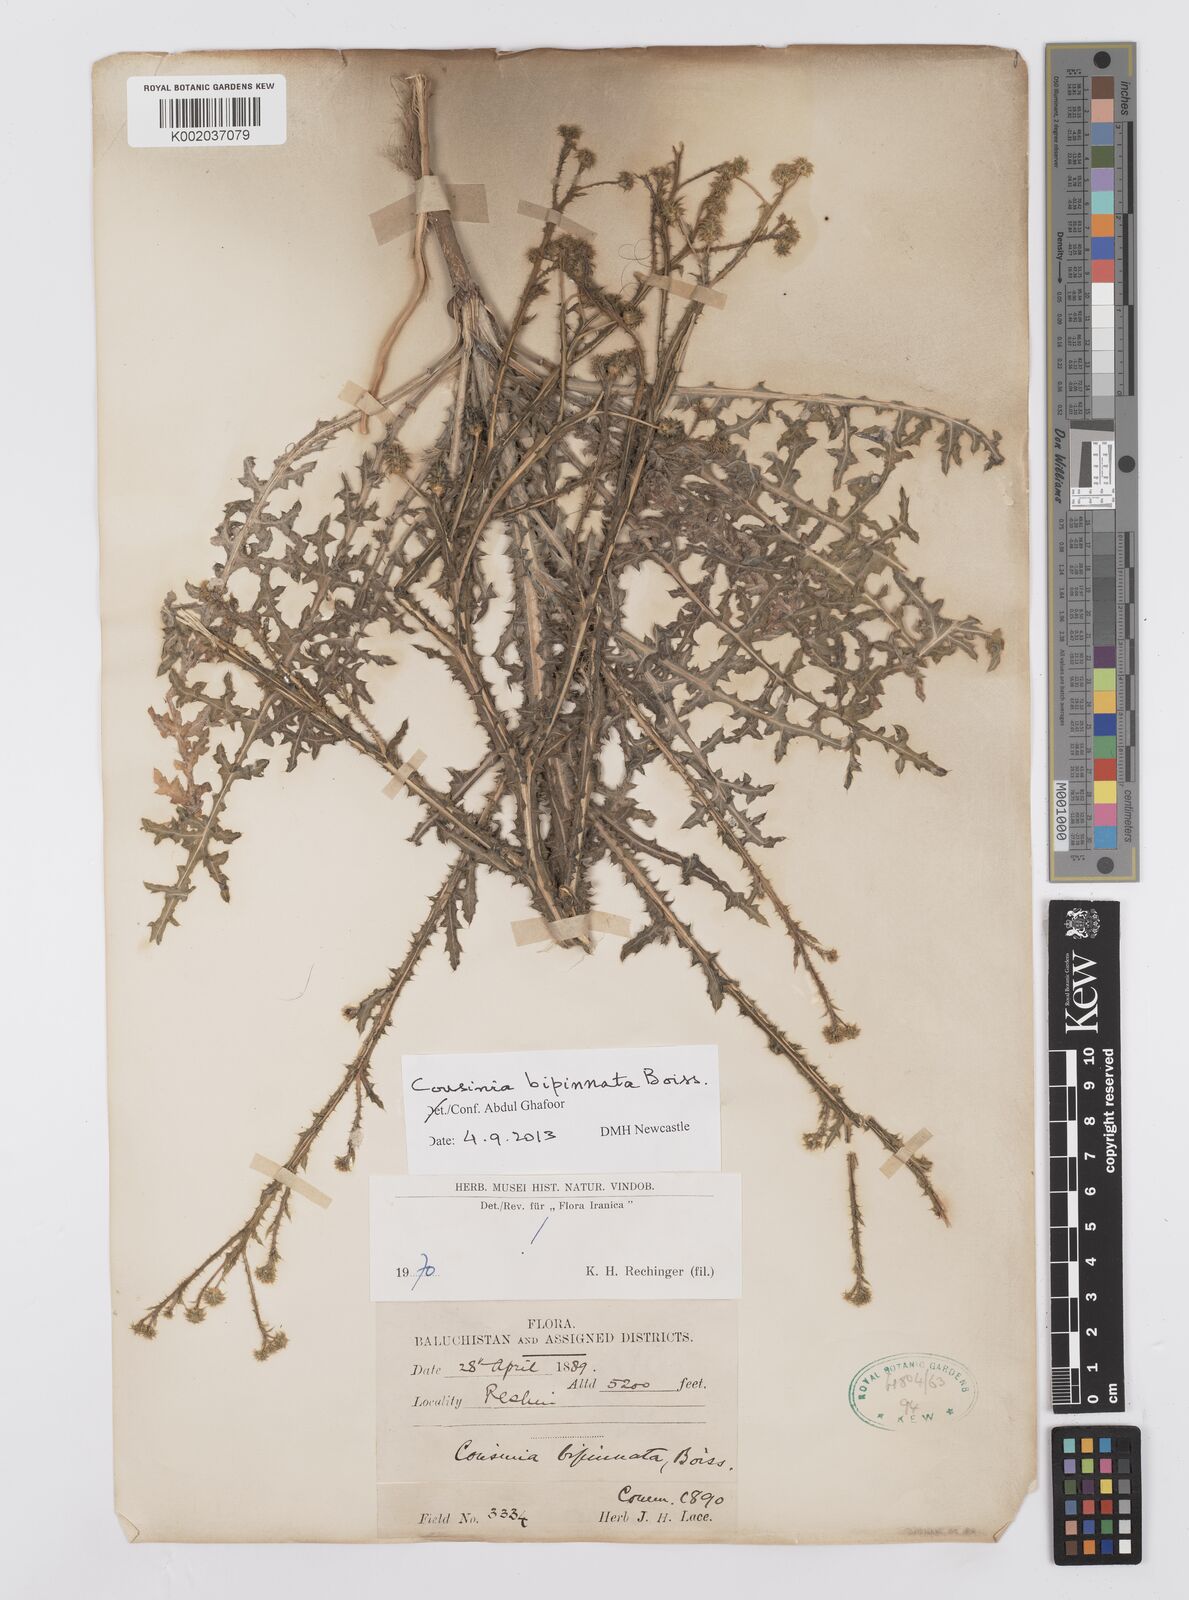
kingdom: Plantae
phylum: Tracheophyta
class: Magnoliopsida
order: Asterales
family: Asteraceae
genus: Cousinia
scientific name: Cousinia bipinnata
